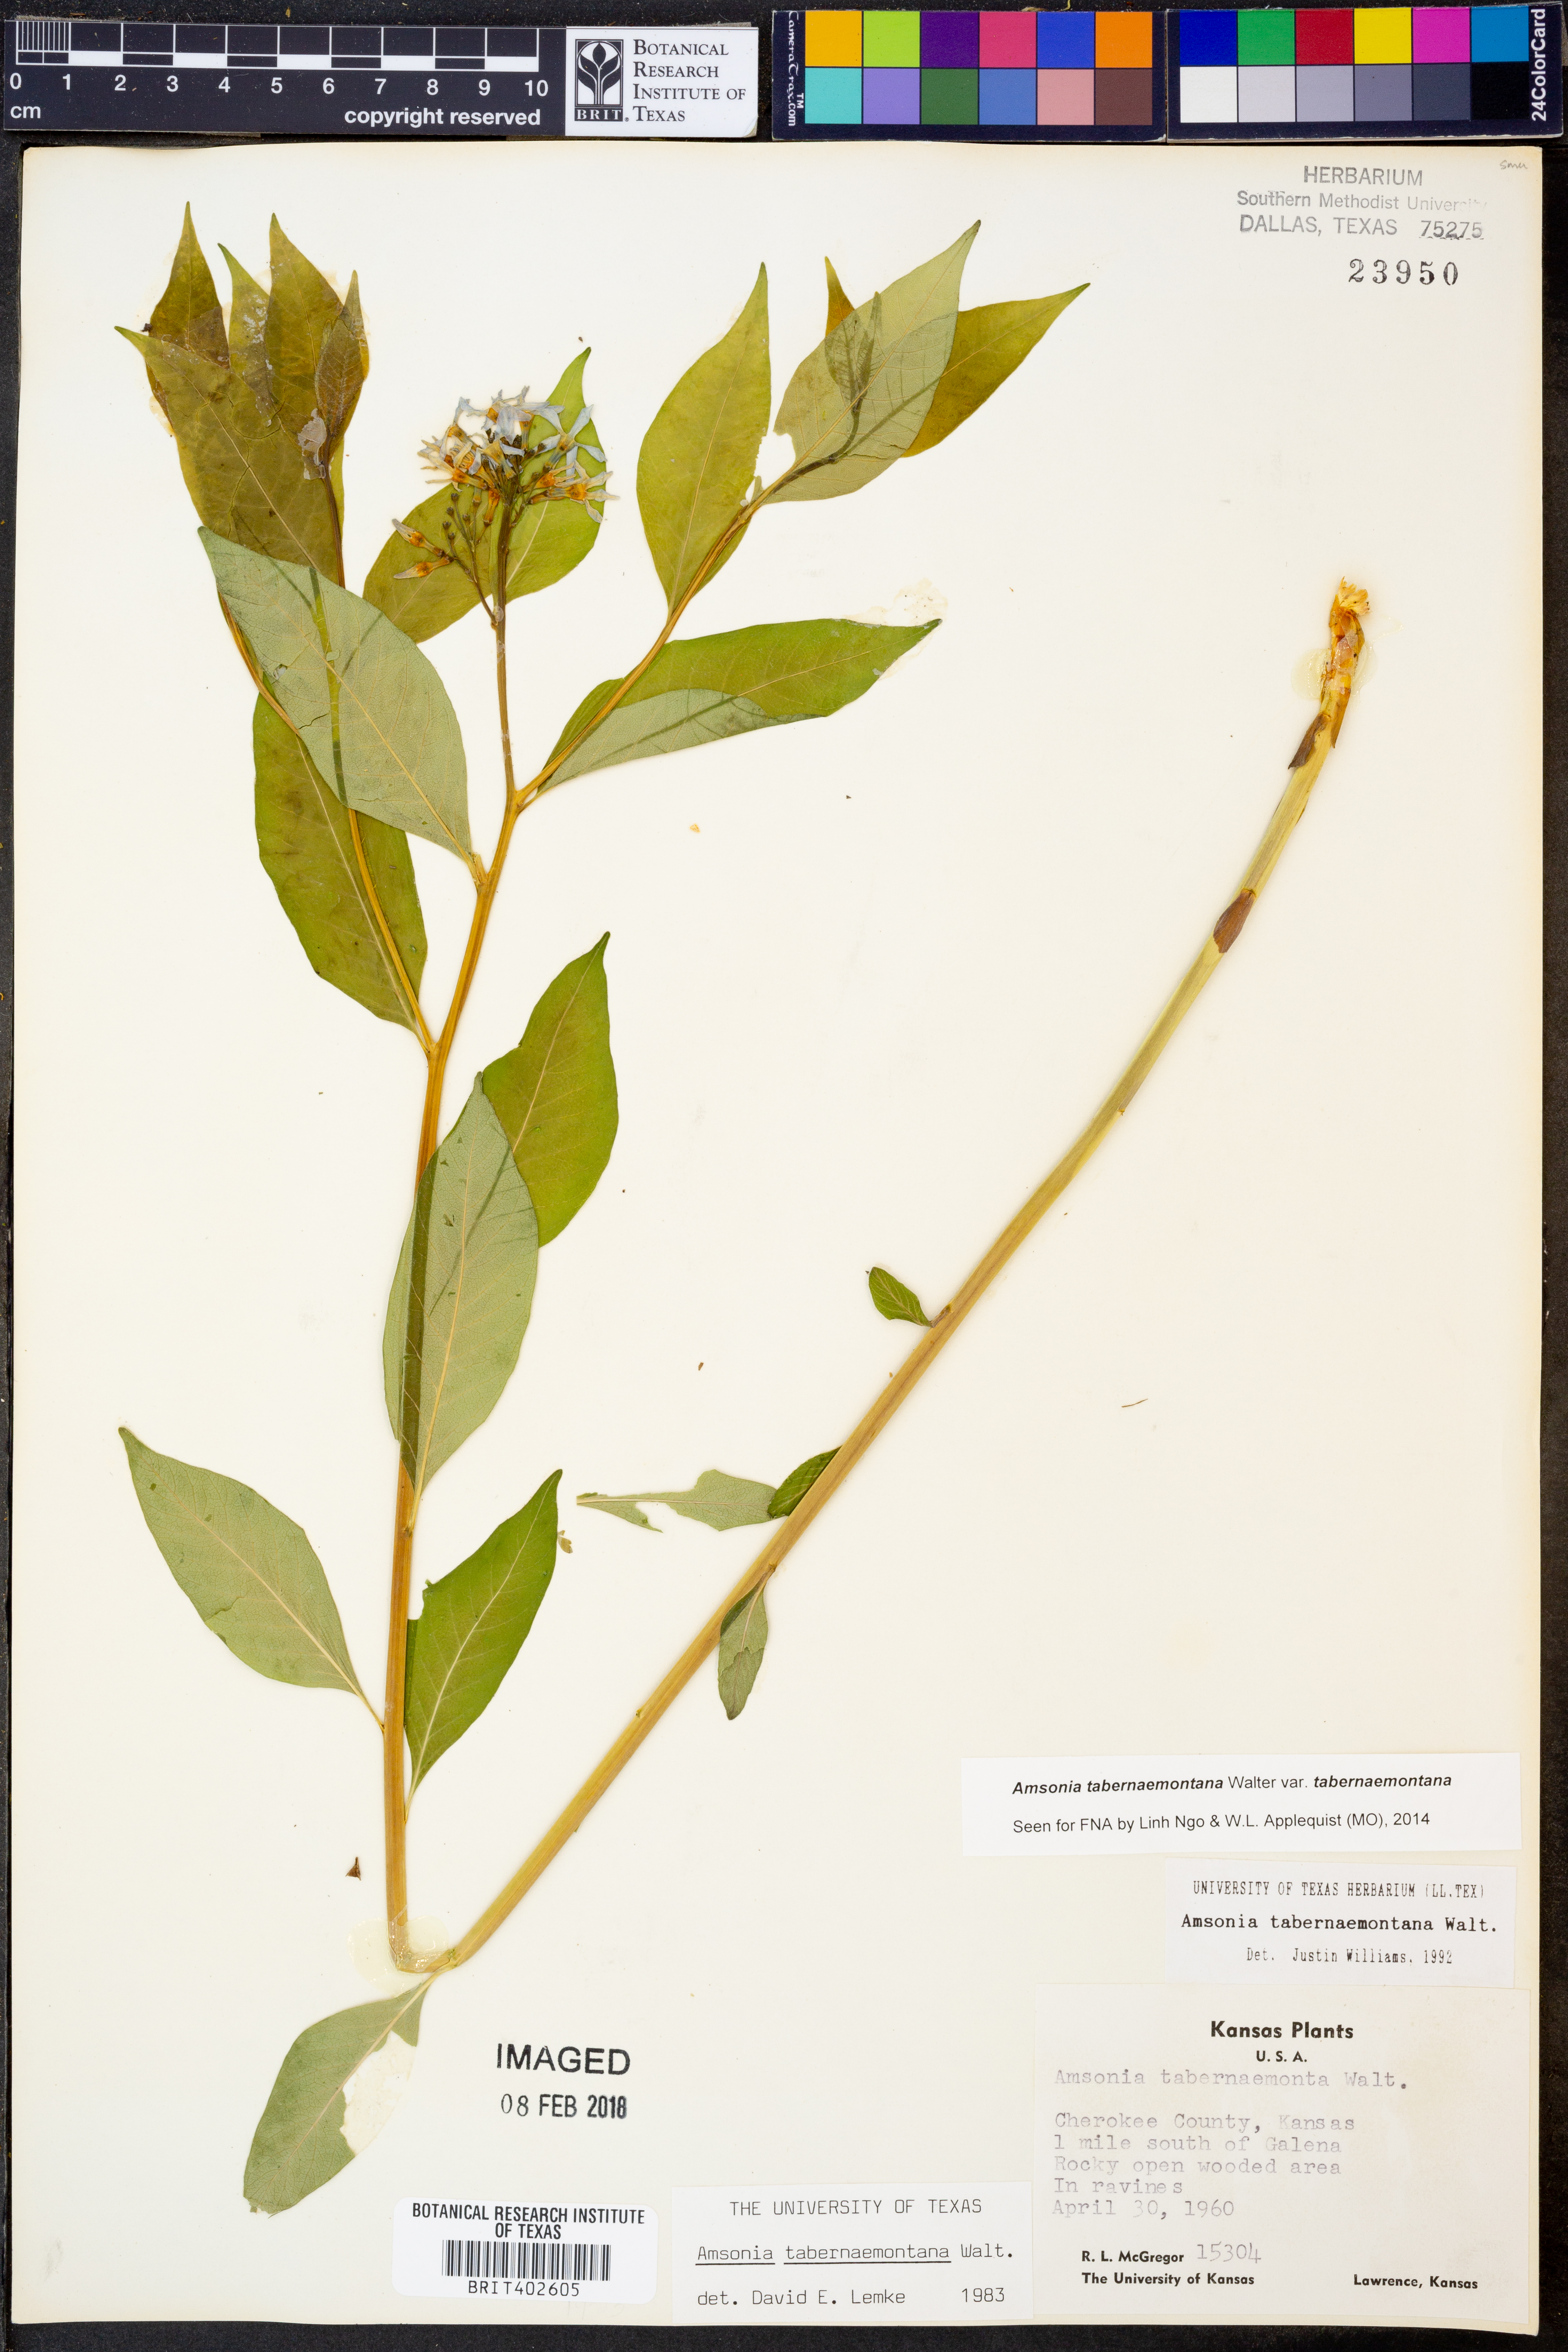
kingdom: Plantae
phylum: Tracheophyta
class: Magnoliopsida
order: Gentianales
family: Apocynaceae
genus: Amsonia
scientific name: Amsonia tabernaemontana
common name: Texas-star
